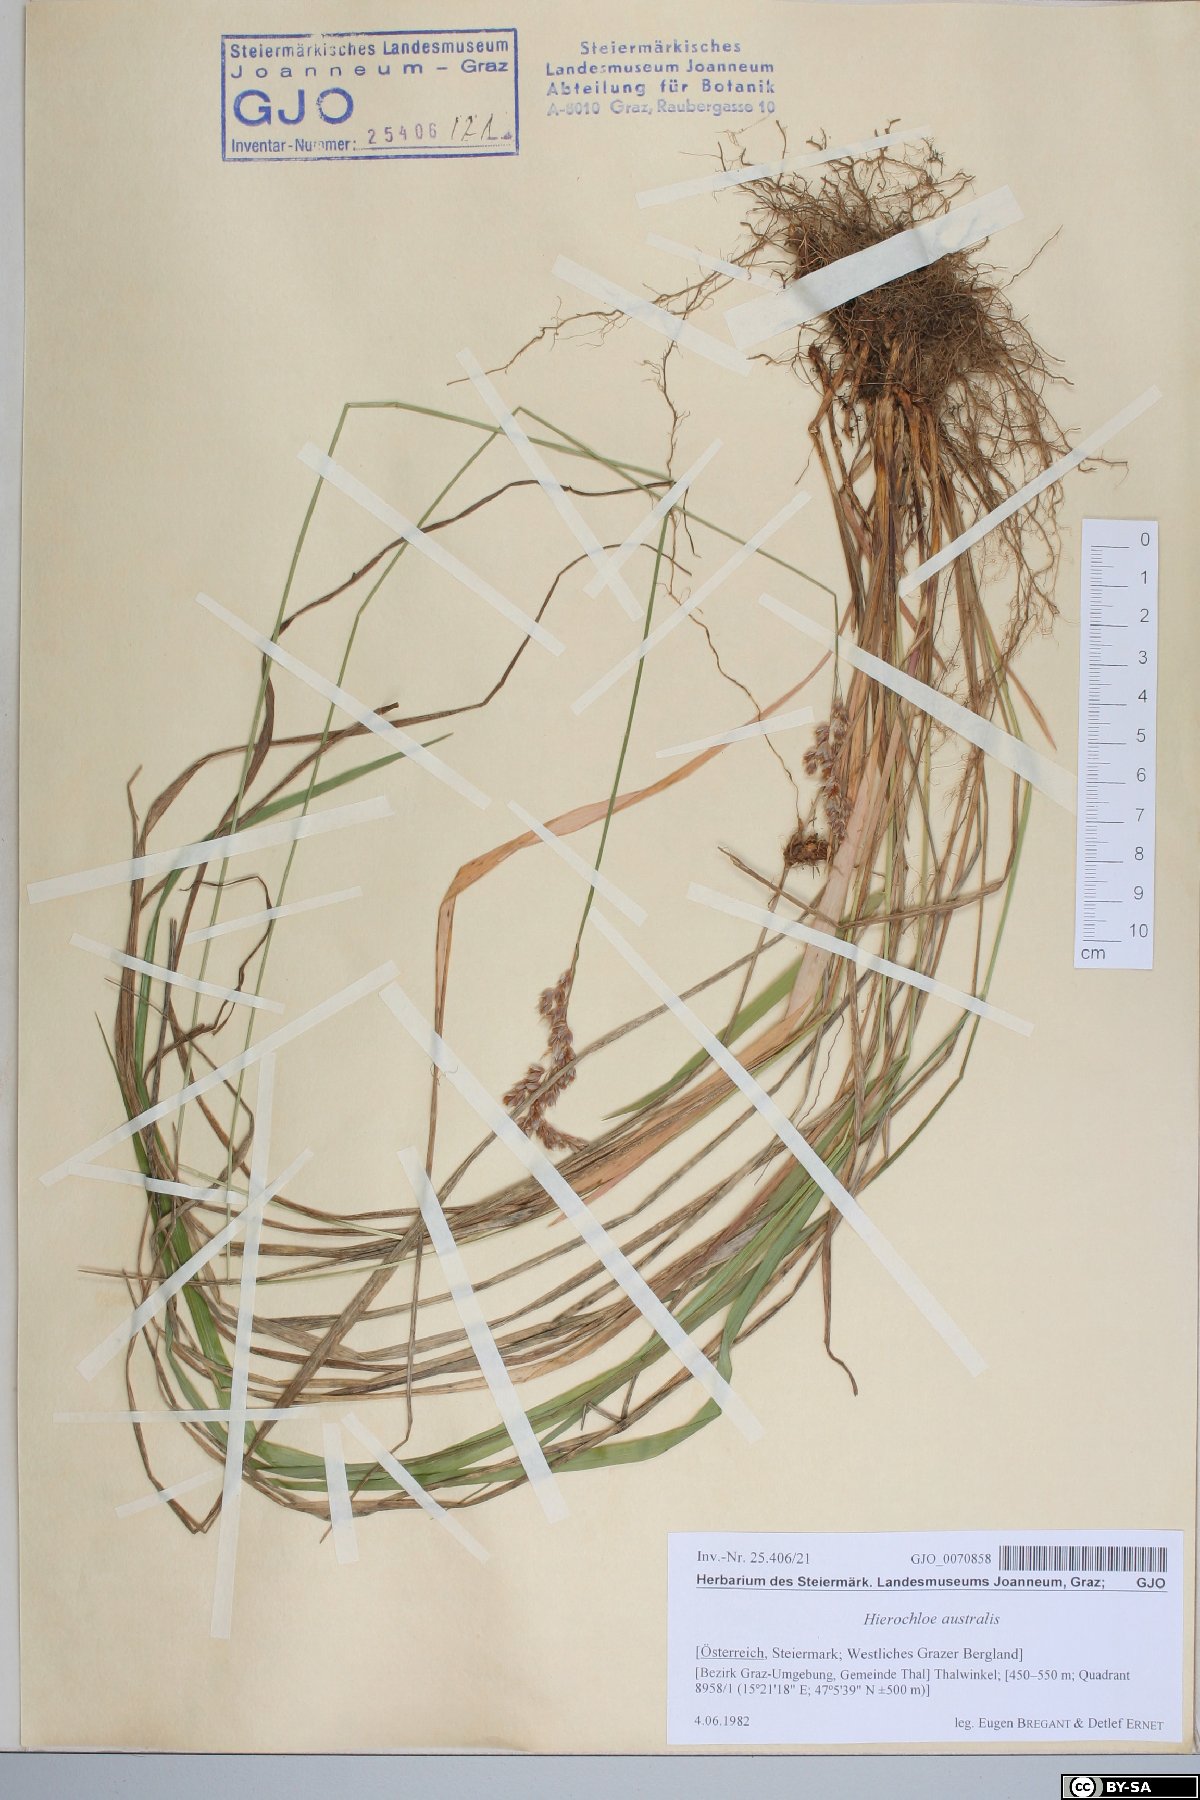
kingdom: Plantae
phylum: Tracheophyta
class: Liliopsida
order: Poales
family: Poaceae
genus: Anthoxanthum
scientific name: Anthoxanthum australe
